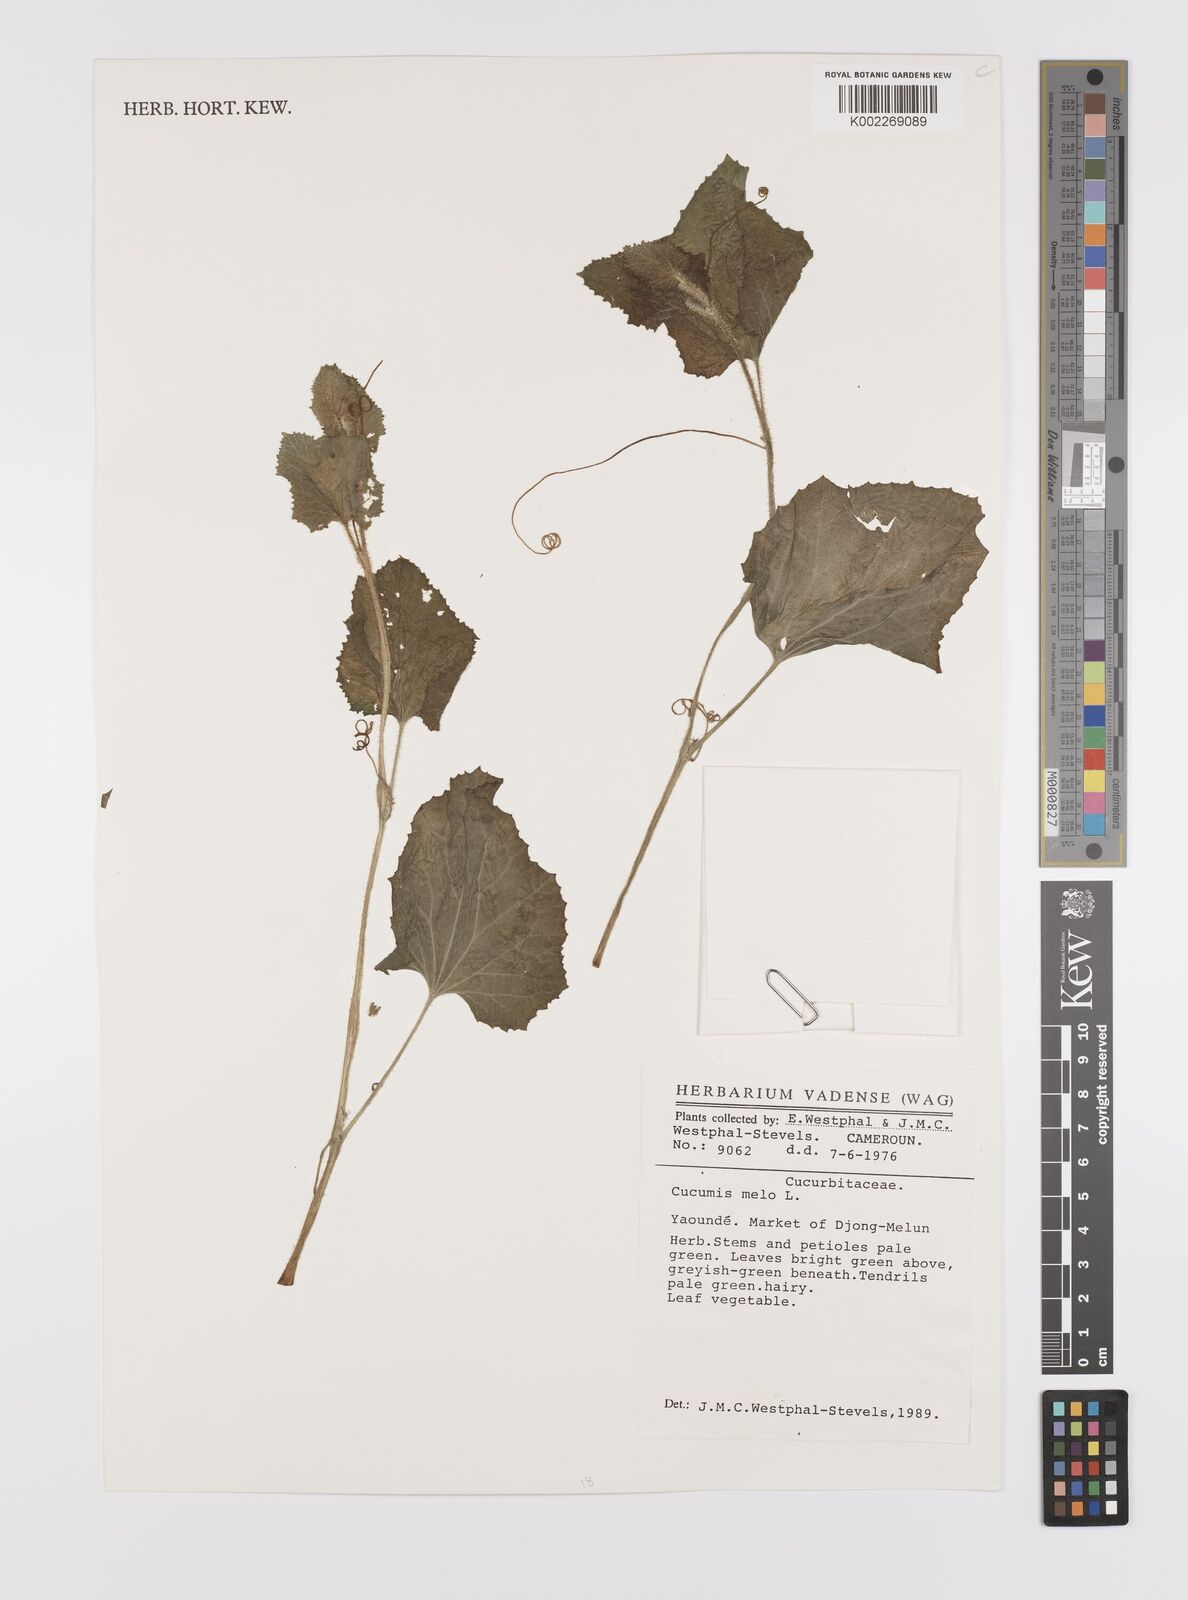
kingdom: Plantae
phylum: Tracheophyta
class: Magnoliopsida
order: Cucurbitales
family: Cucurbitaceae
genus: Cucumis
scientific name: Cucumis melo
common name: Melon
